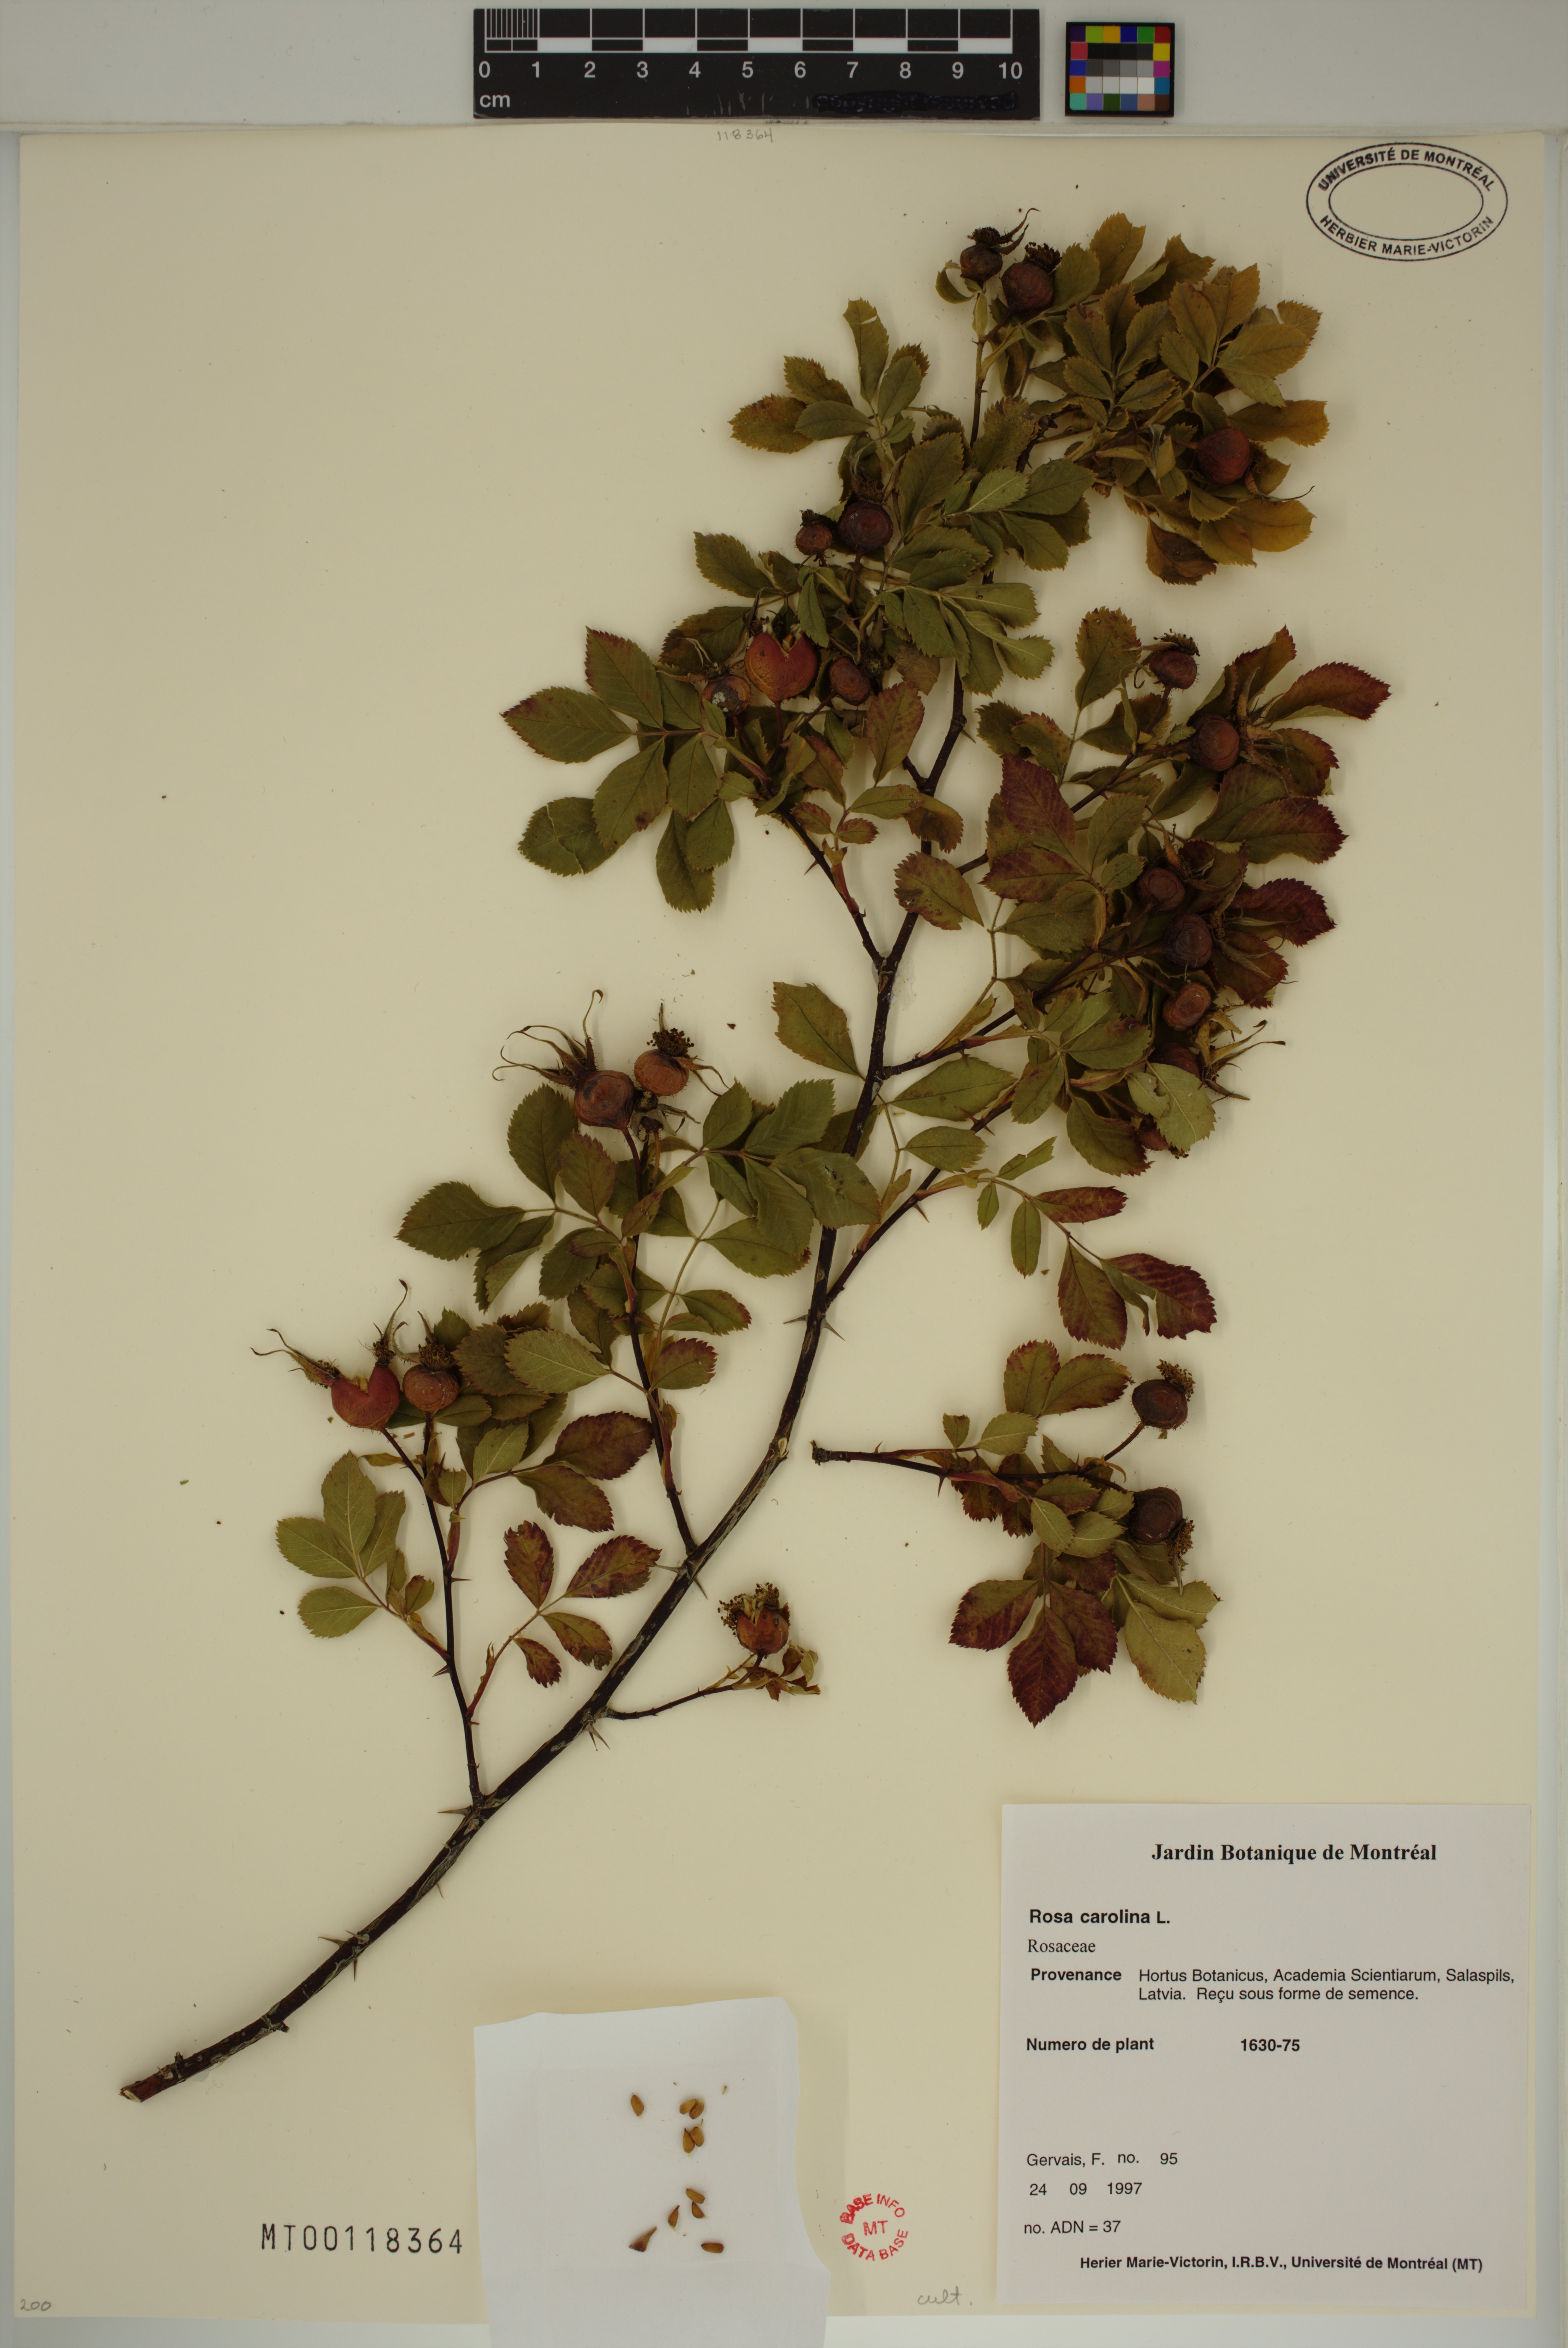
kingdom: Plantae
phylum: Tracheophyta
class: Magnoliopsida
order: Rosales
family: Rosaceae
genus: Rosa
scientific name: Rosa carolina
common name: Pasture rose
